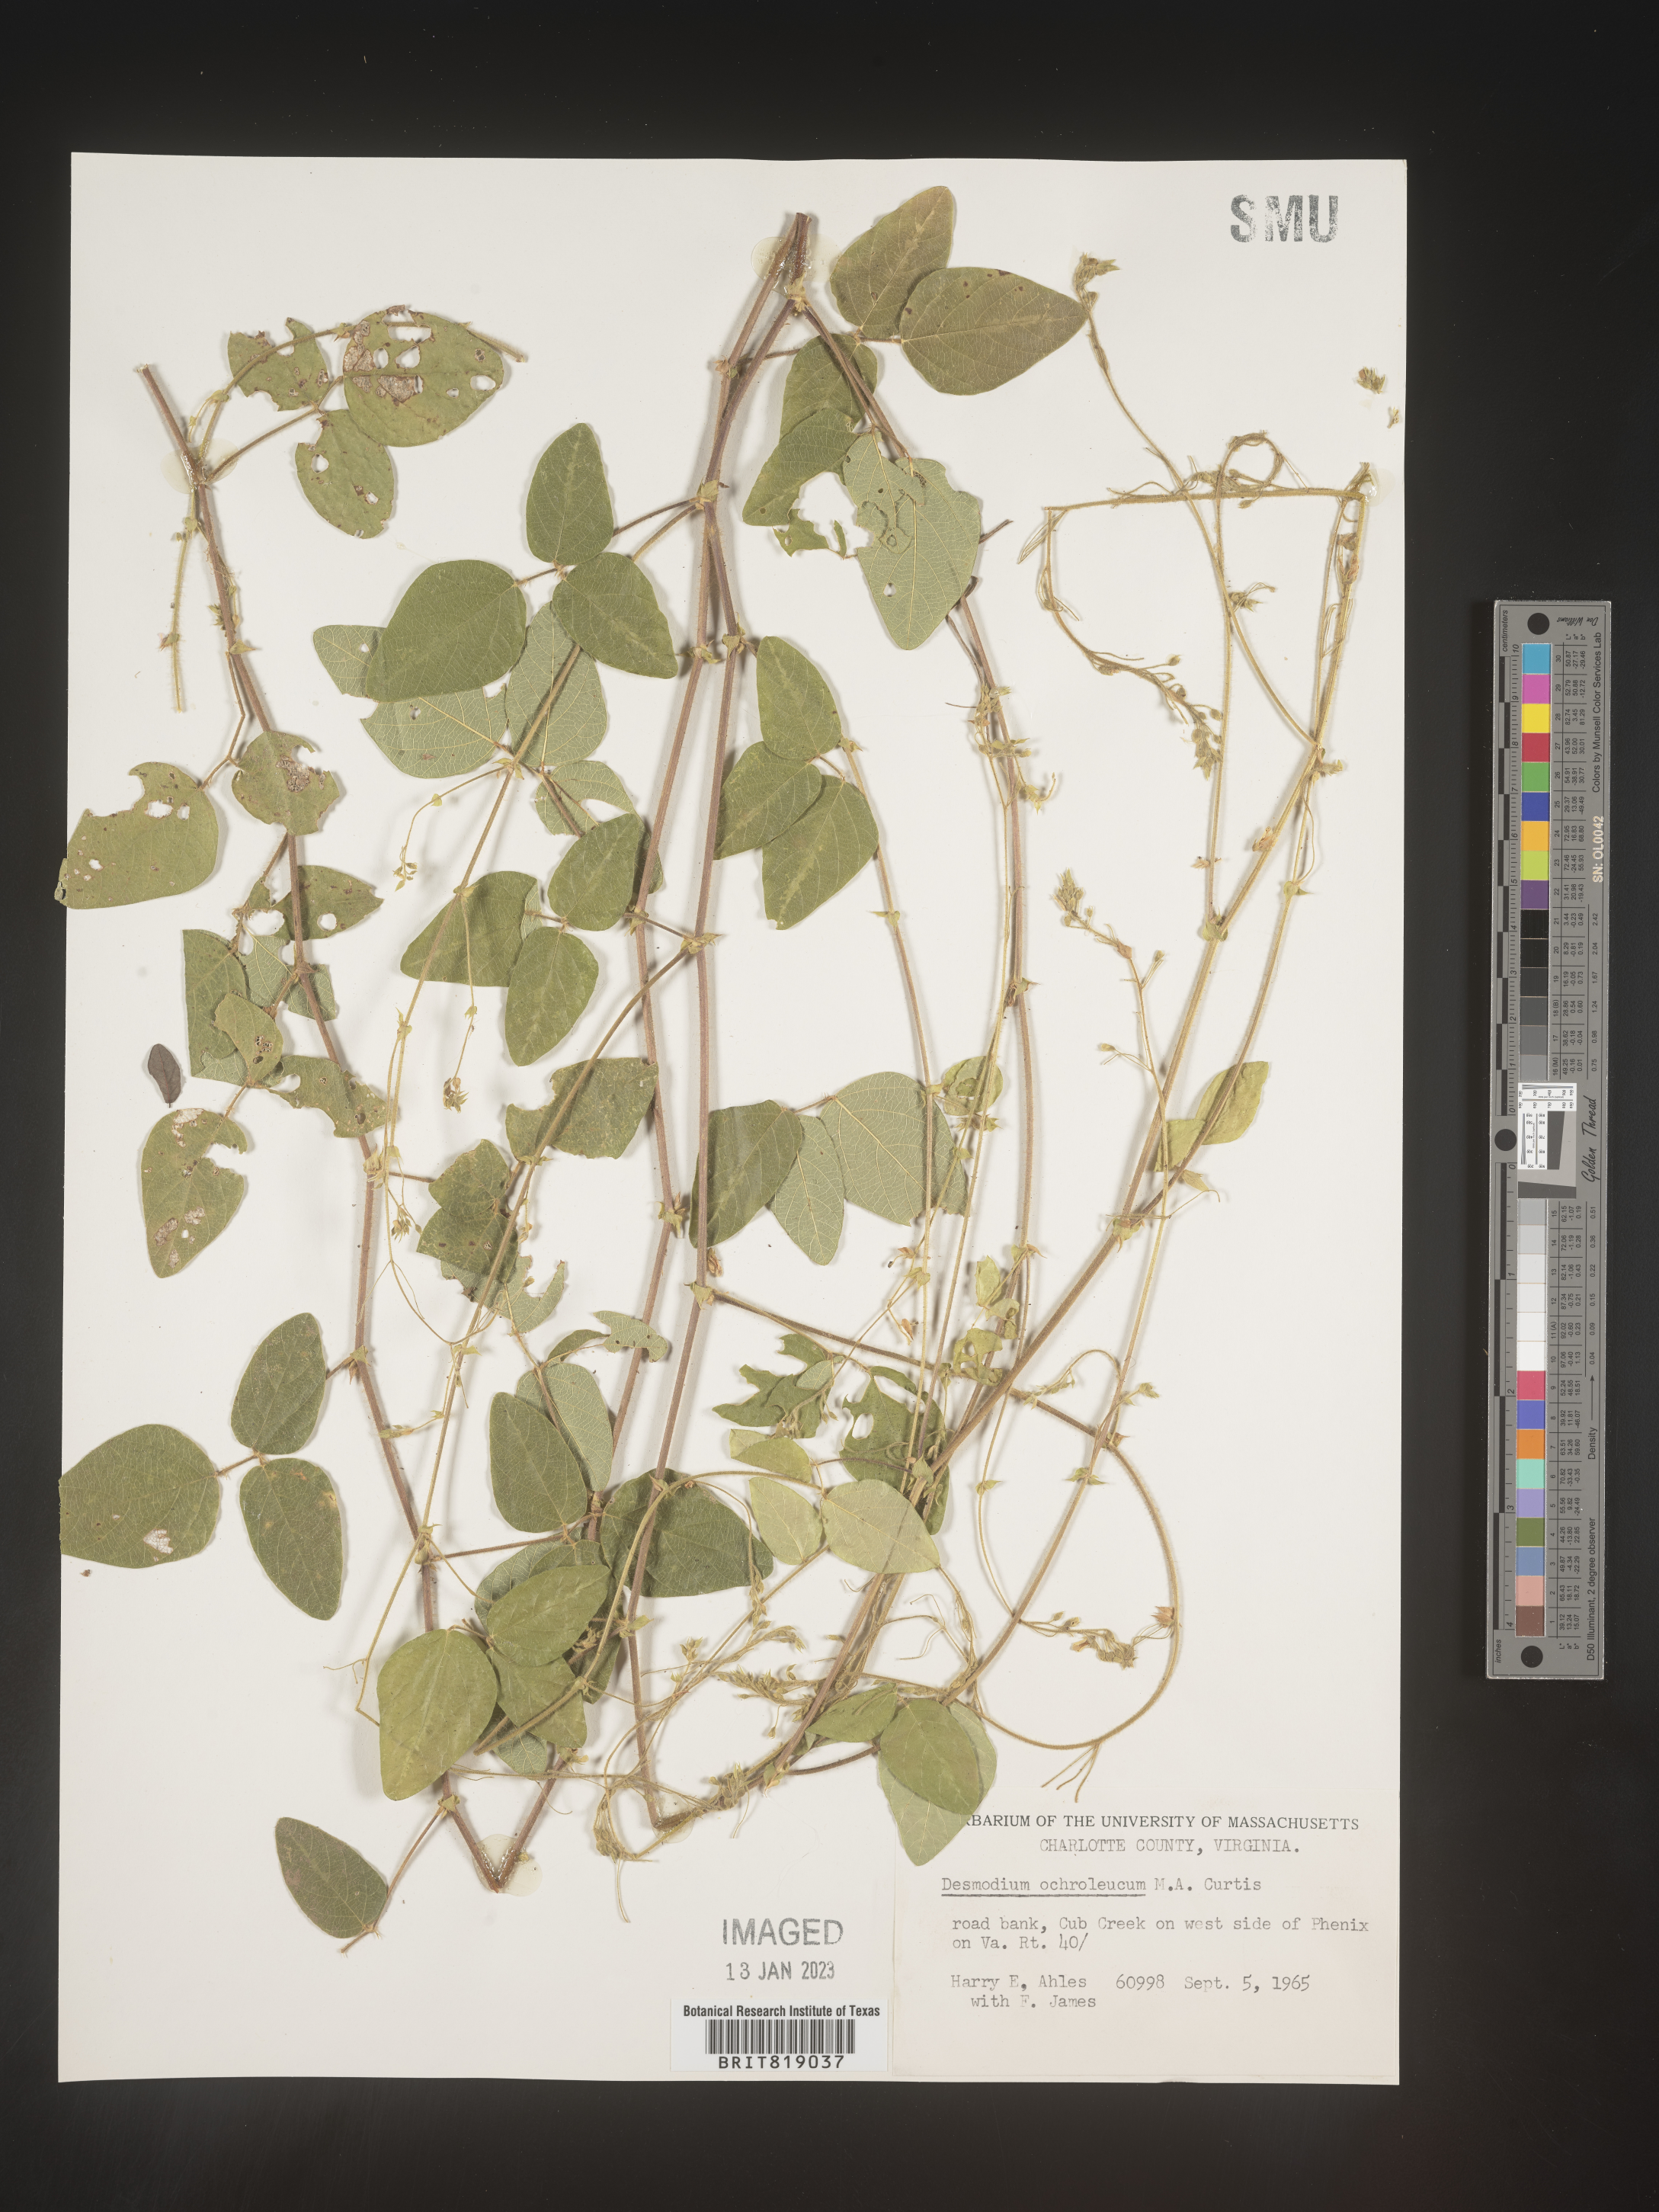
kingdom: Plantae
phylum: Tracheophyta
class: Magnoliopsida
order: Fabales
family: Fabaceae
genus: Desmodium
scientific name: Desmodium ochroleucum
